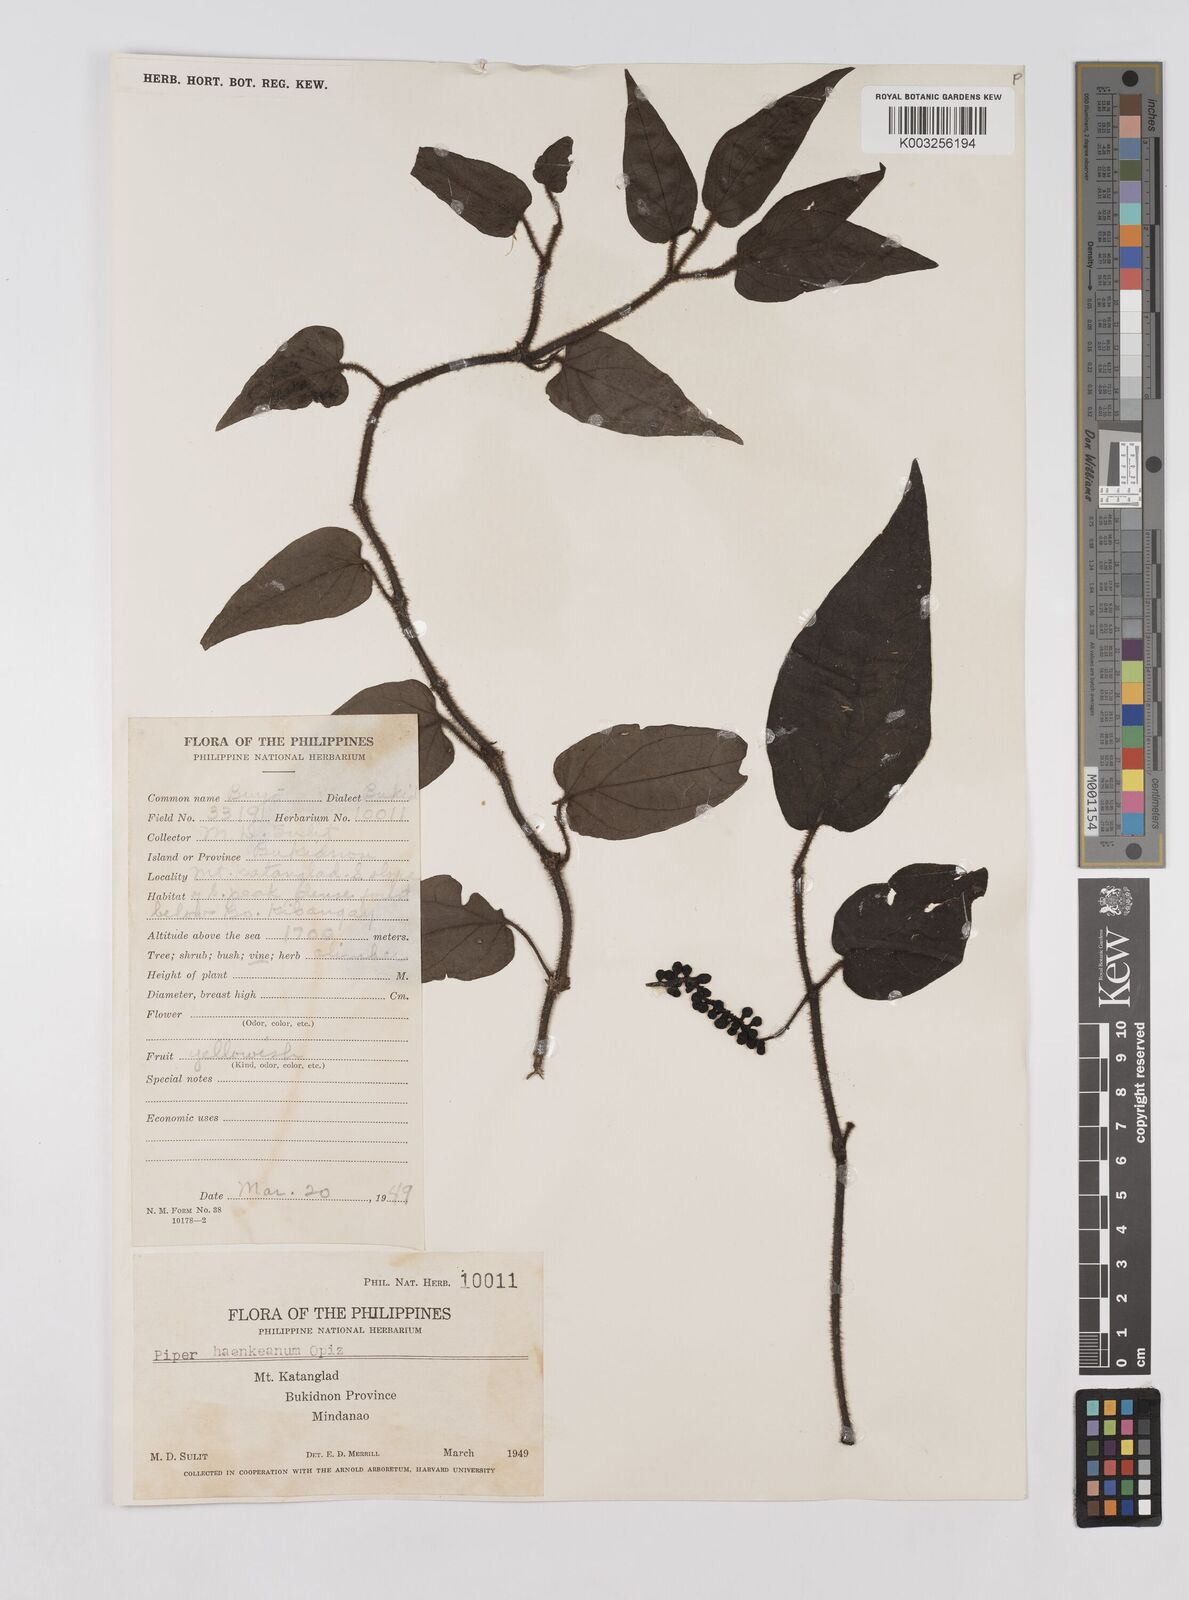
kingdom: Plantae
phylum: Tracheophyta
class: Magnoliopsida
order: Piperales
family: Piperaceae
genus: Piper
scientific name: Piper lanatum
